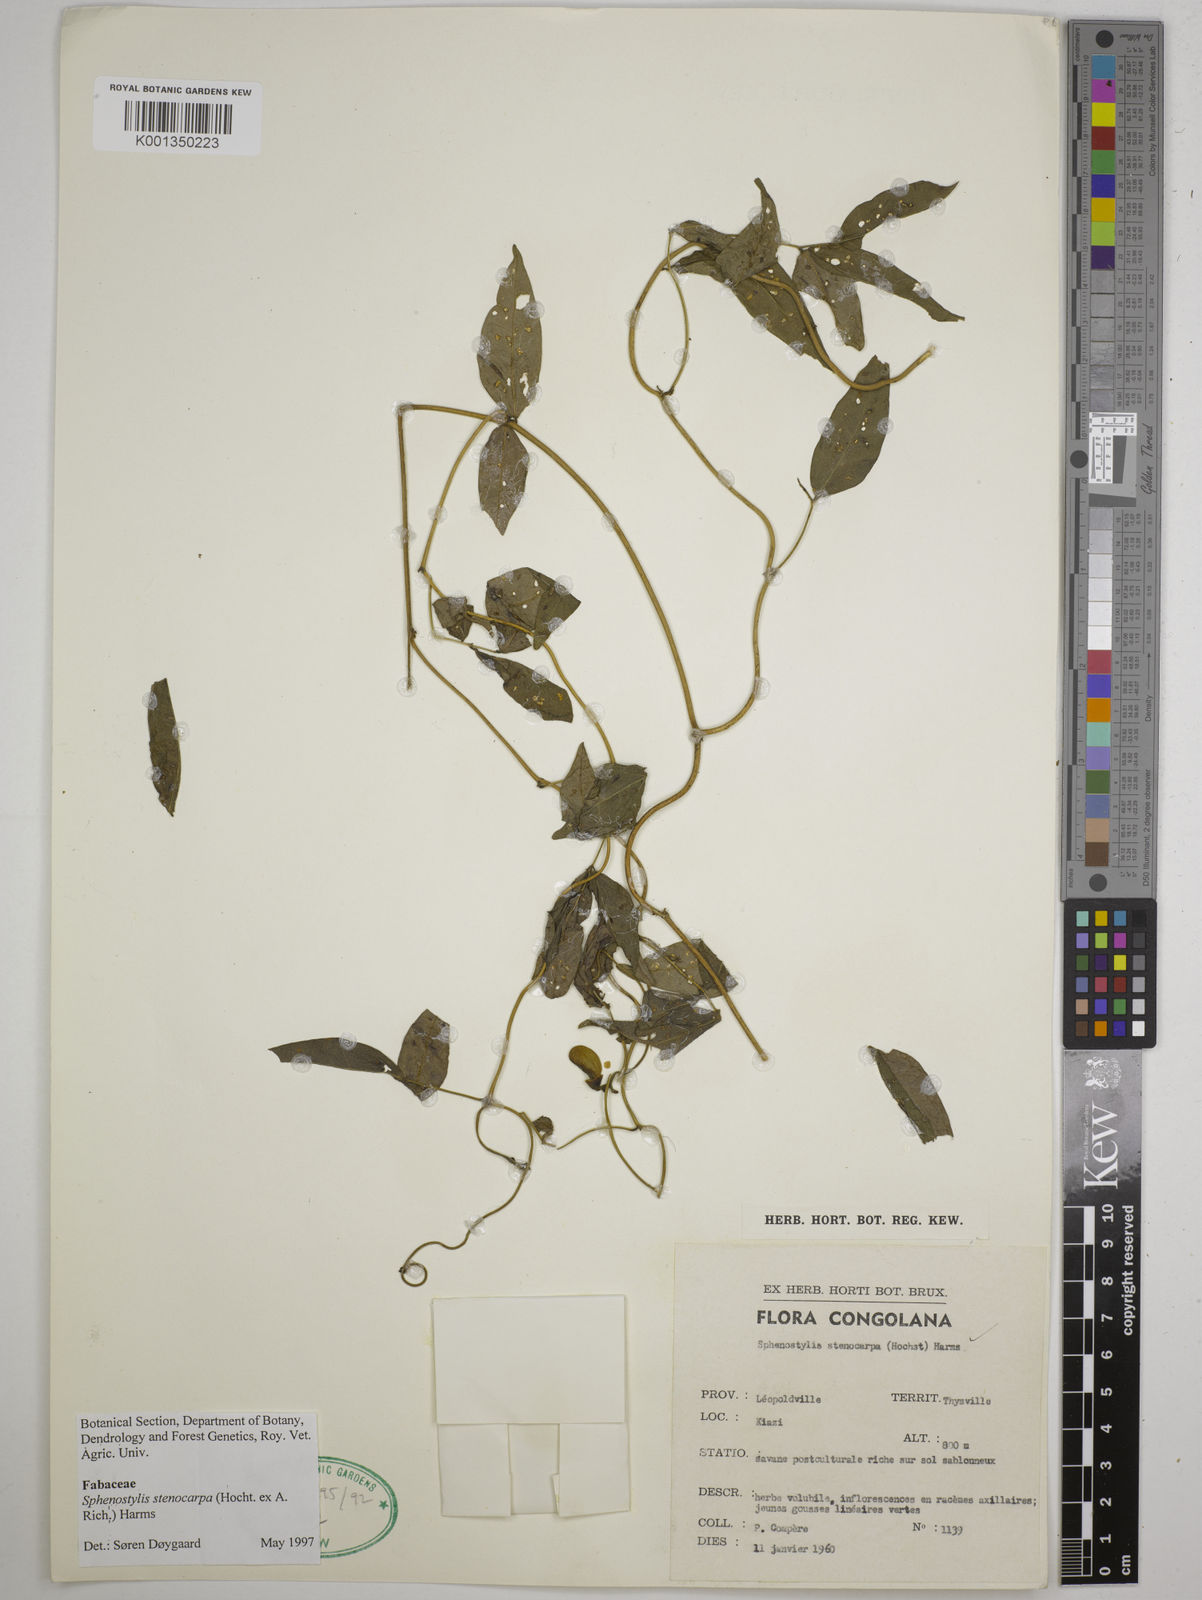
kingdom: Plantae
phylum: Tracheophyta
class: Magnoliopsida
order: Fabales
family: Fabaceae
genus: Sphenostylis
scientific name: Sphenostylis stenocarpa
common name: Yam-pea
